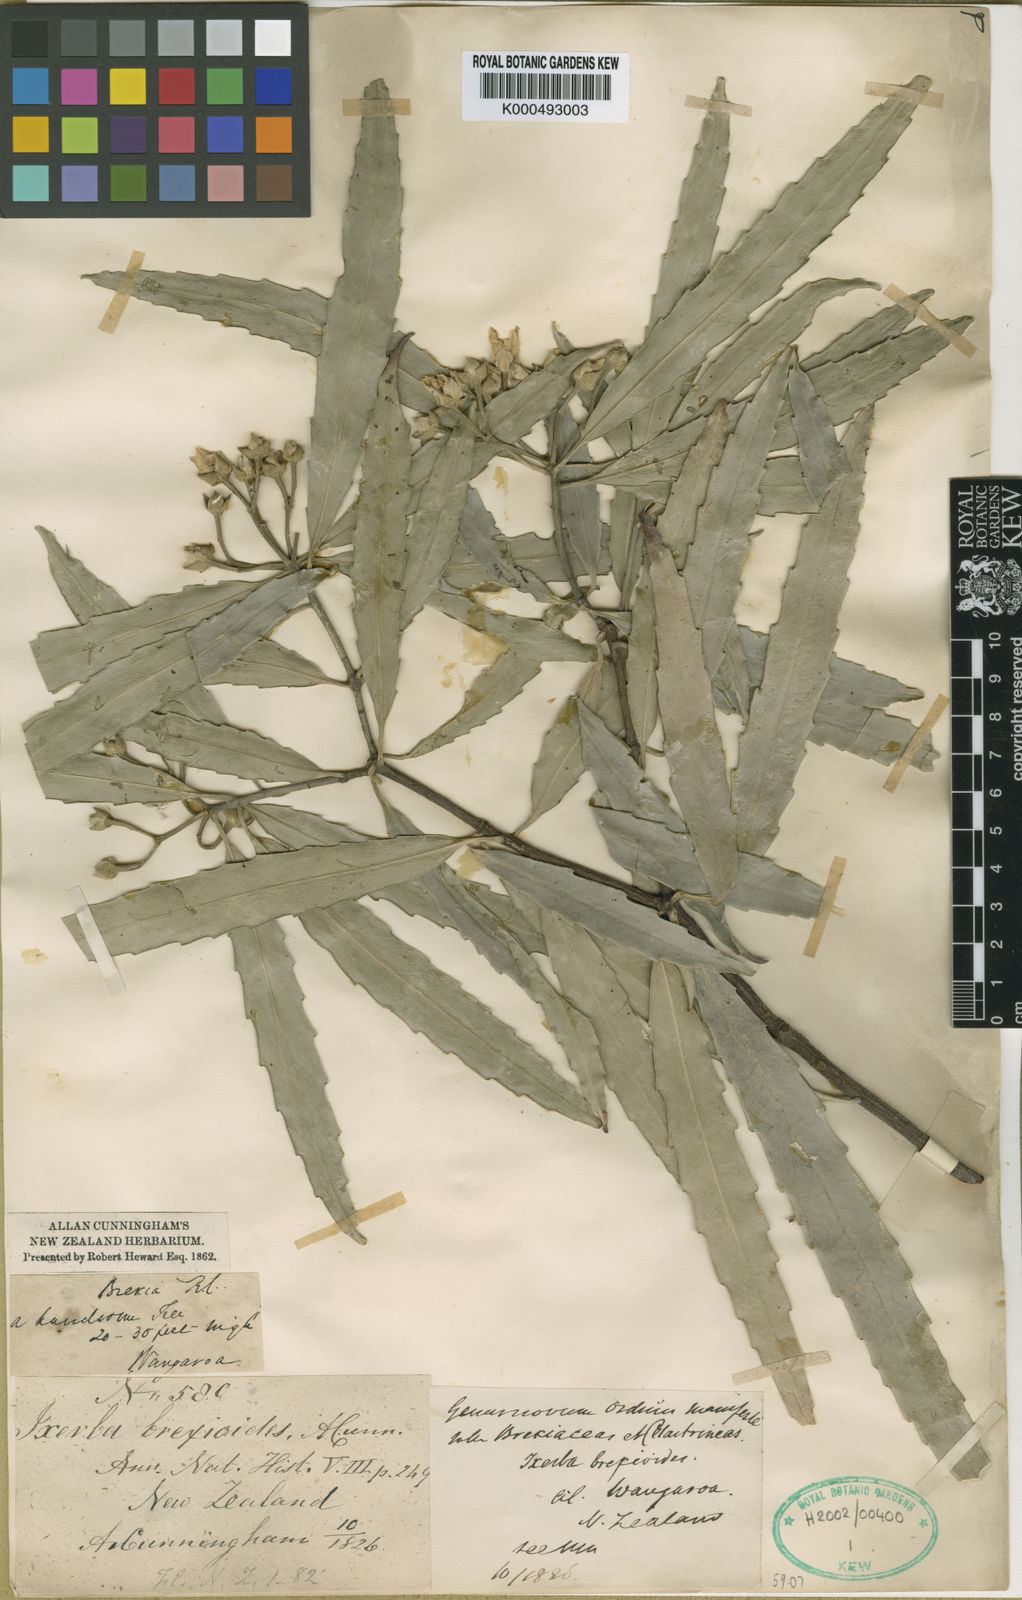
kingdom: Plantae
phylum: Tracheophyta
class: Magnoliopsida
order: Crossosomatales
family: Ixerbaceae
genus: Ixerba
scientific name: Ixerba brexioides
